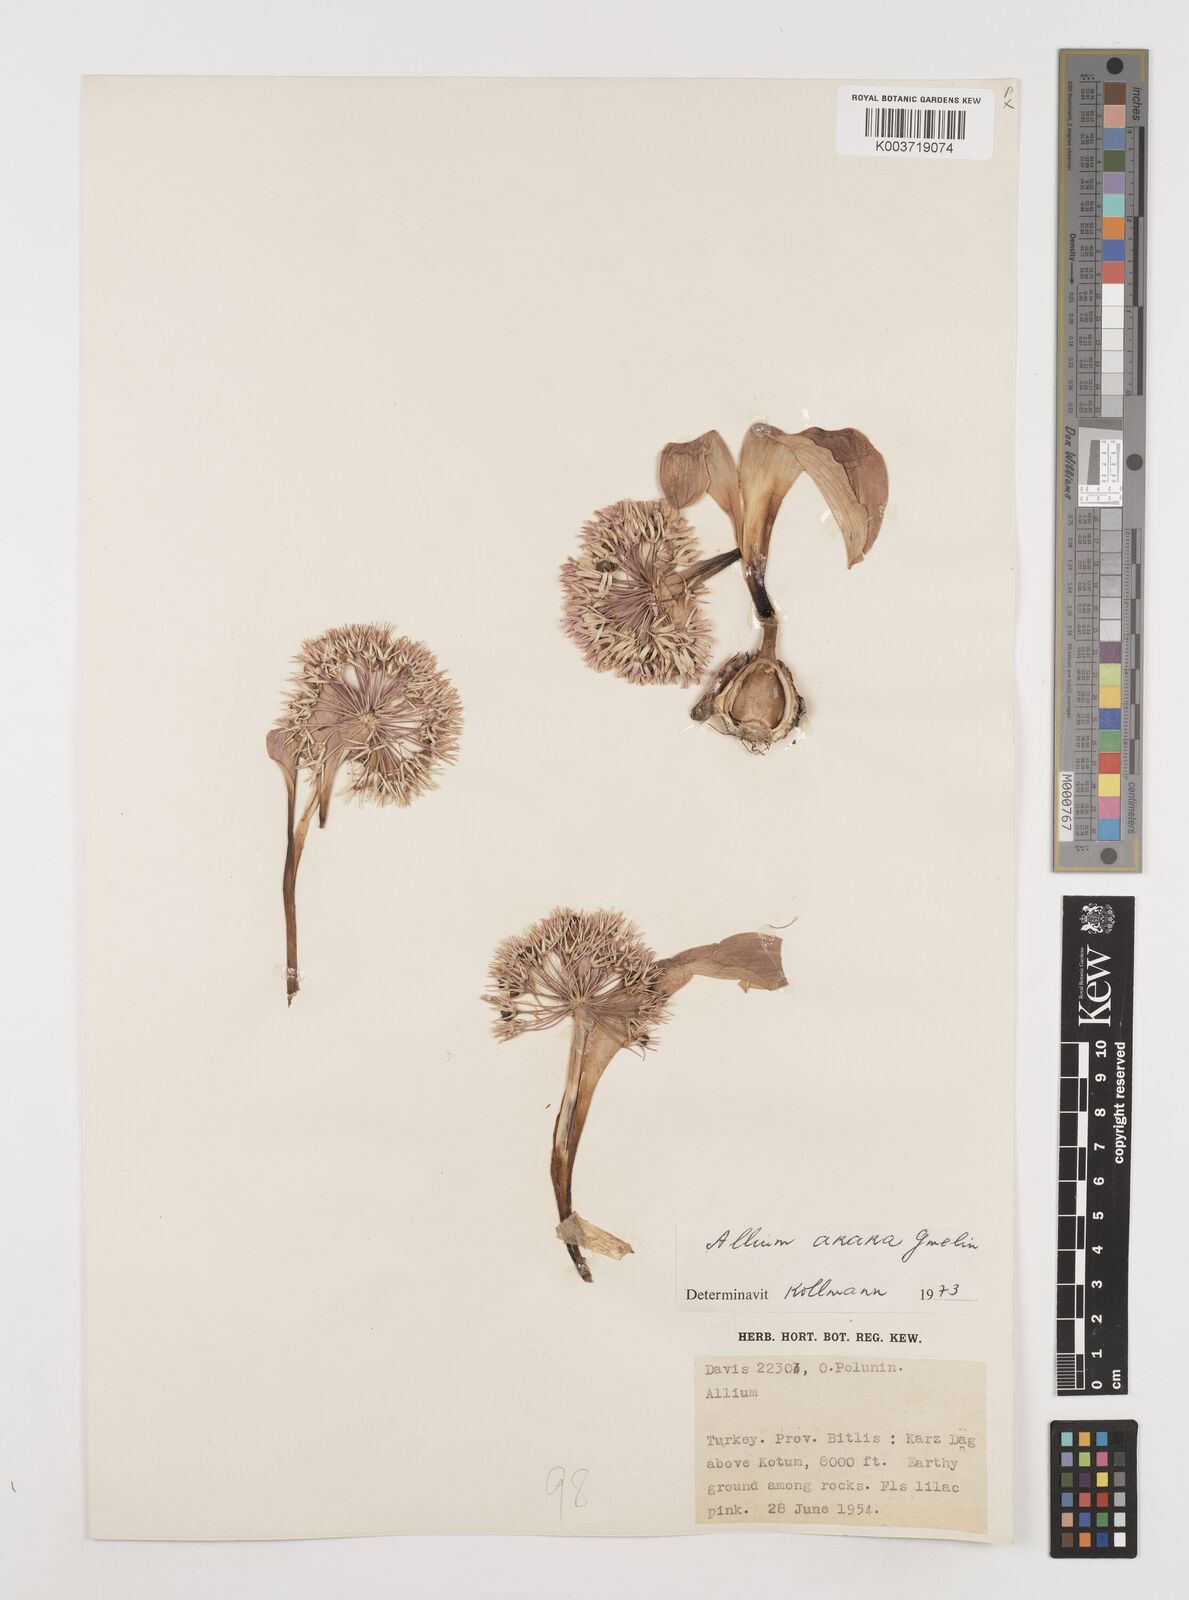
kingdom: Plantae
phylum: Tracheophyta
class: Liliopsida
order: Asparagales
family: Amaryllidaceae
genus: Allium
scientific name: Allium akaka
